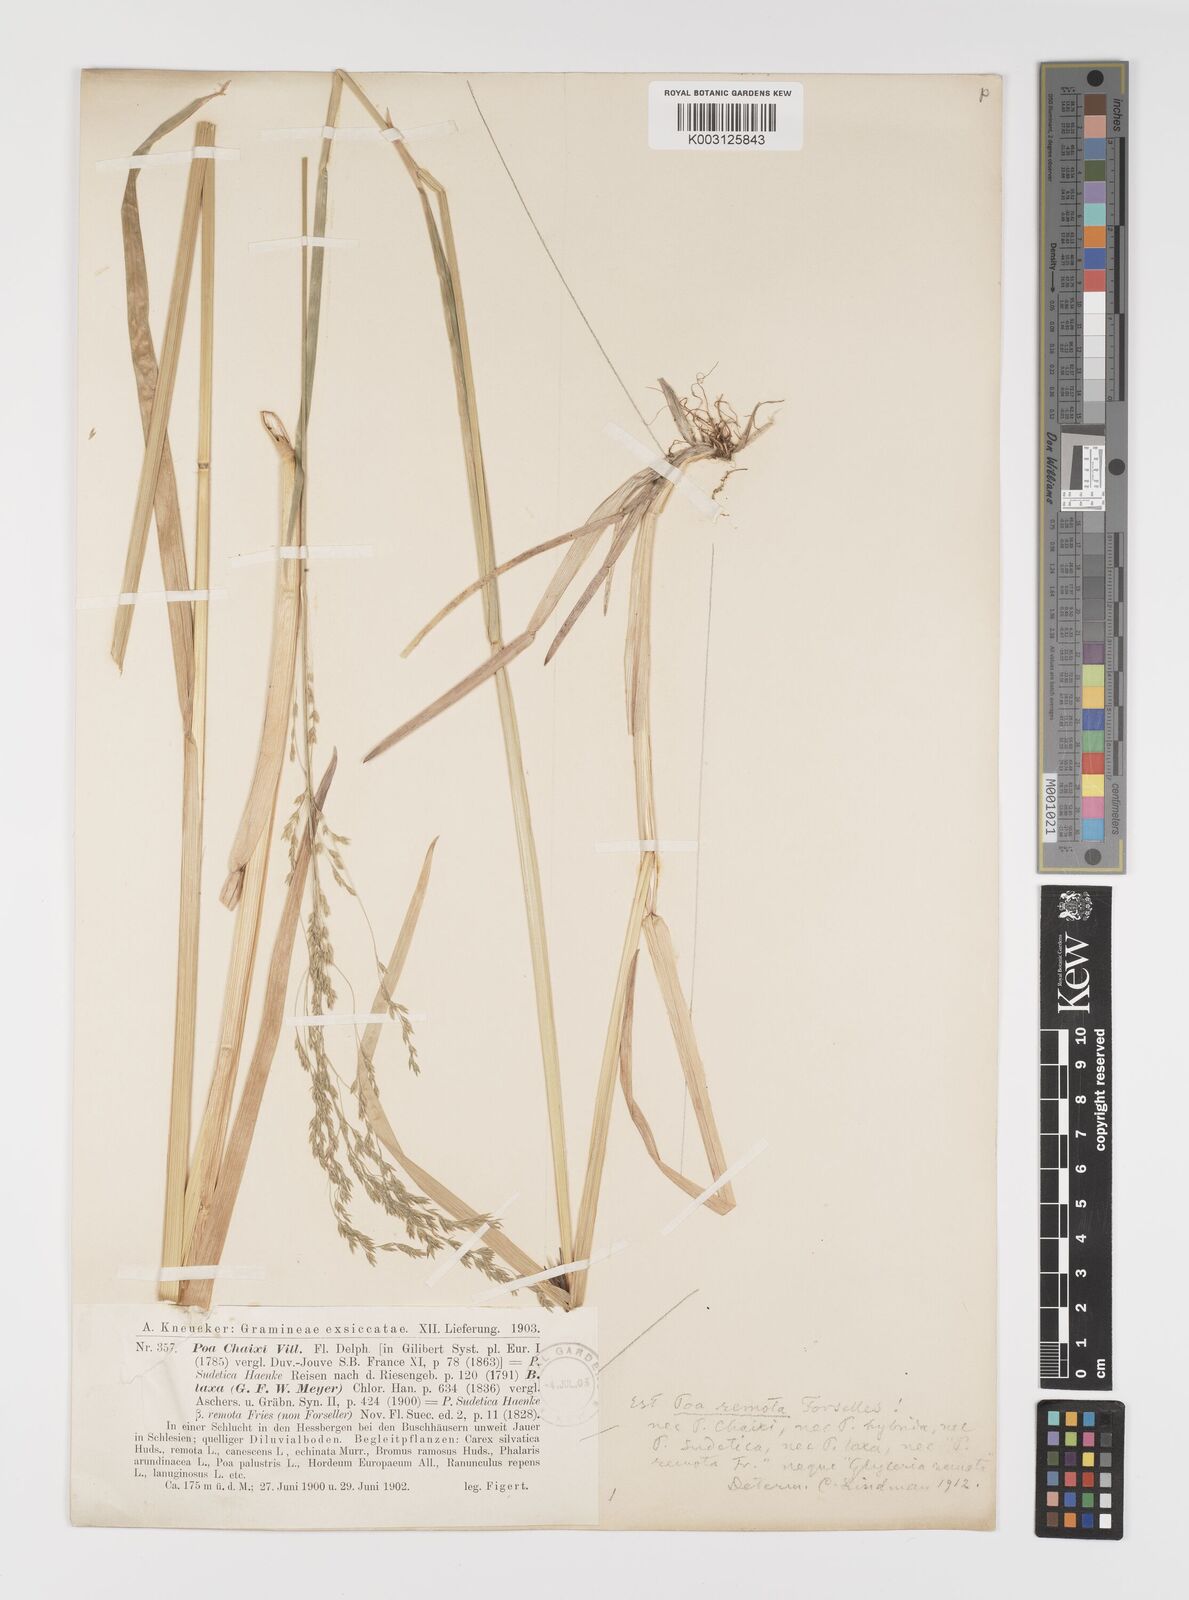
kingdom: Plantae
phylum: Tracheophyta
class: Liliopsida
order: Poales
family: Poaceae
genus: Poa
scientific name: Poa remota
